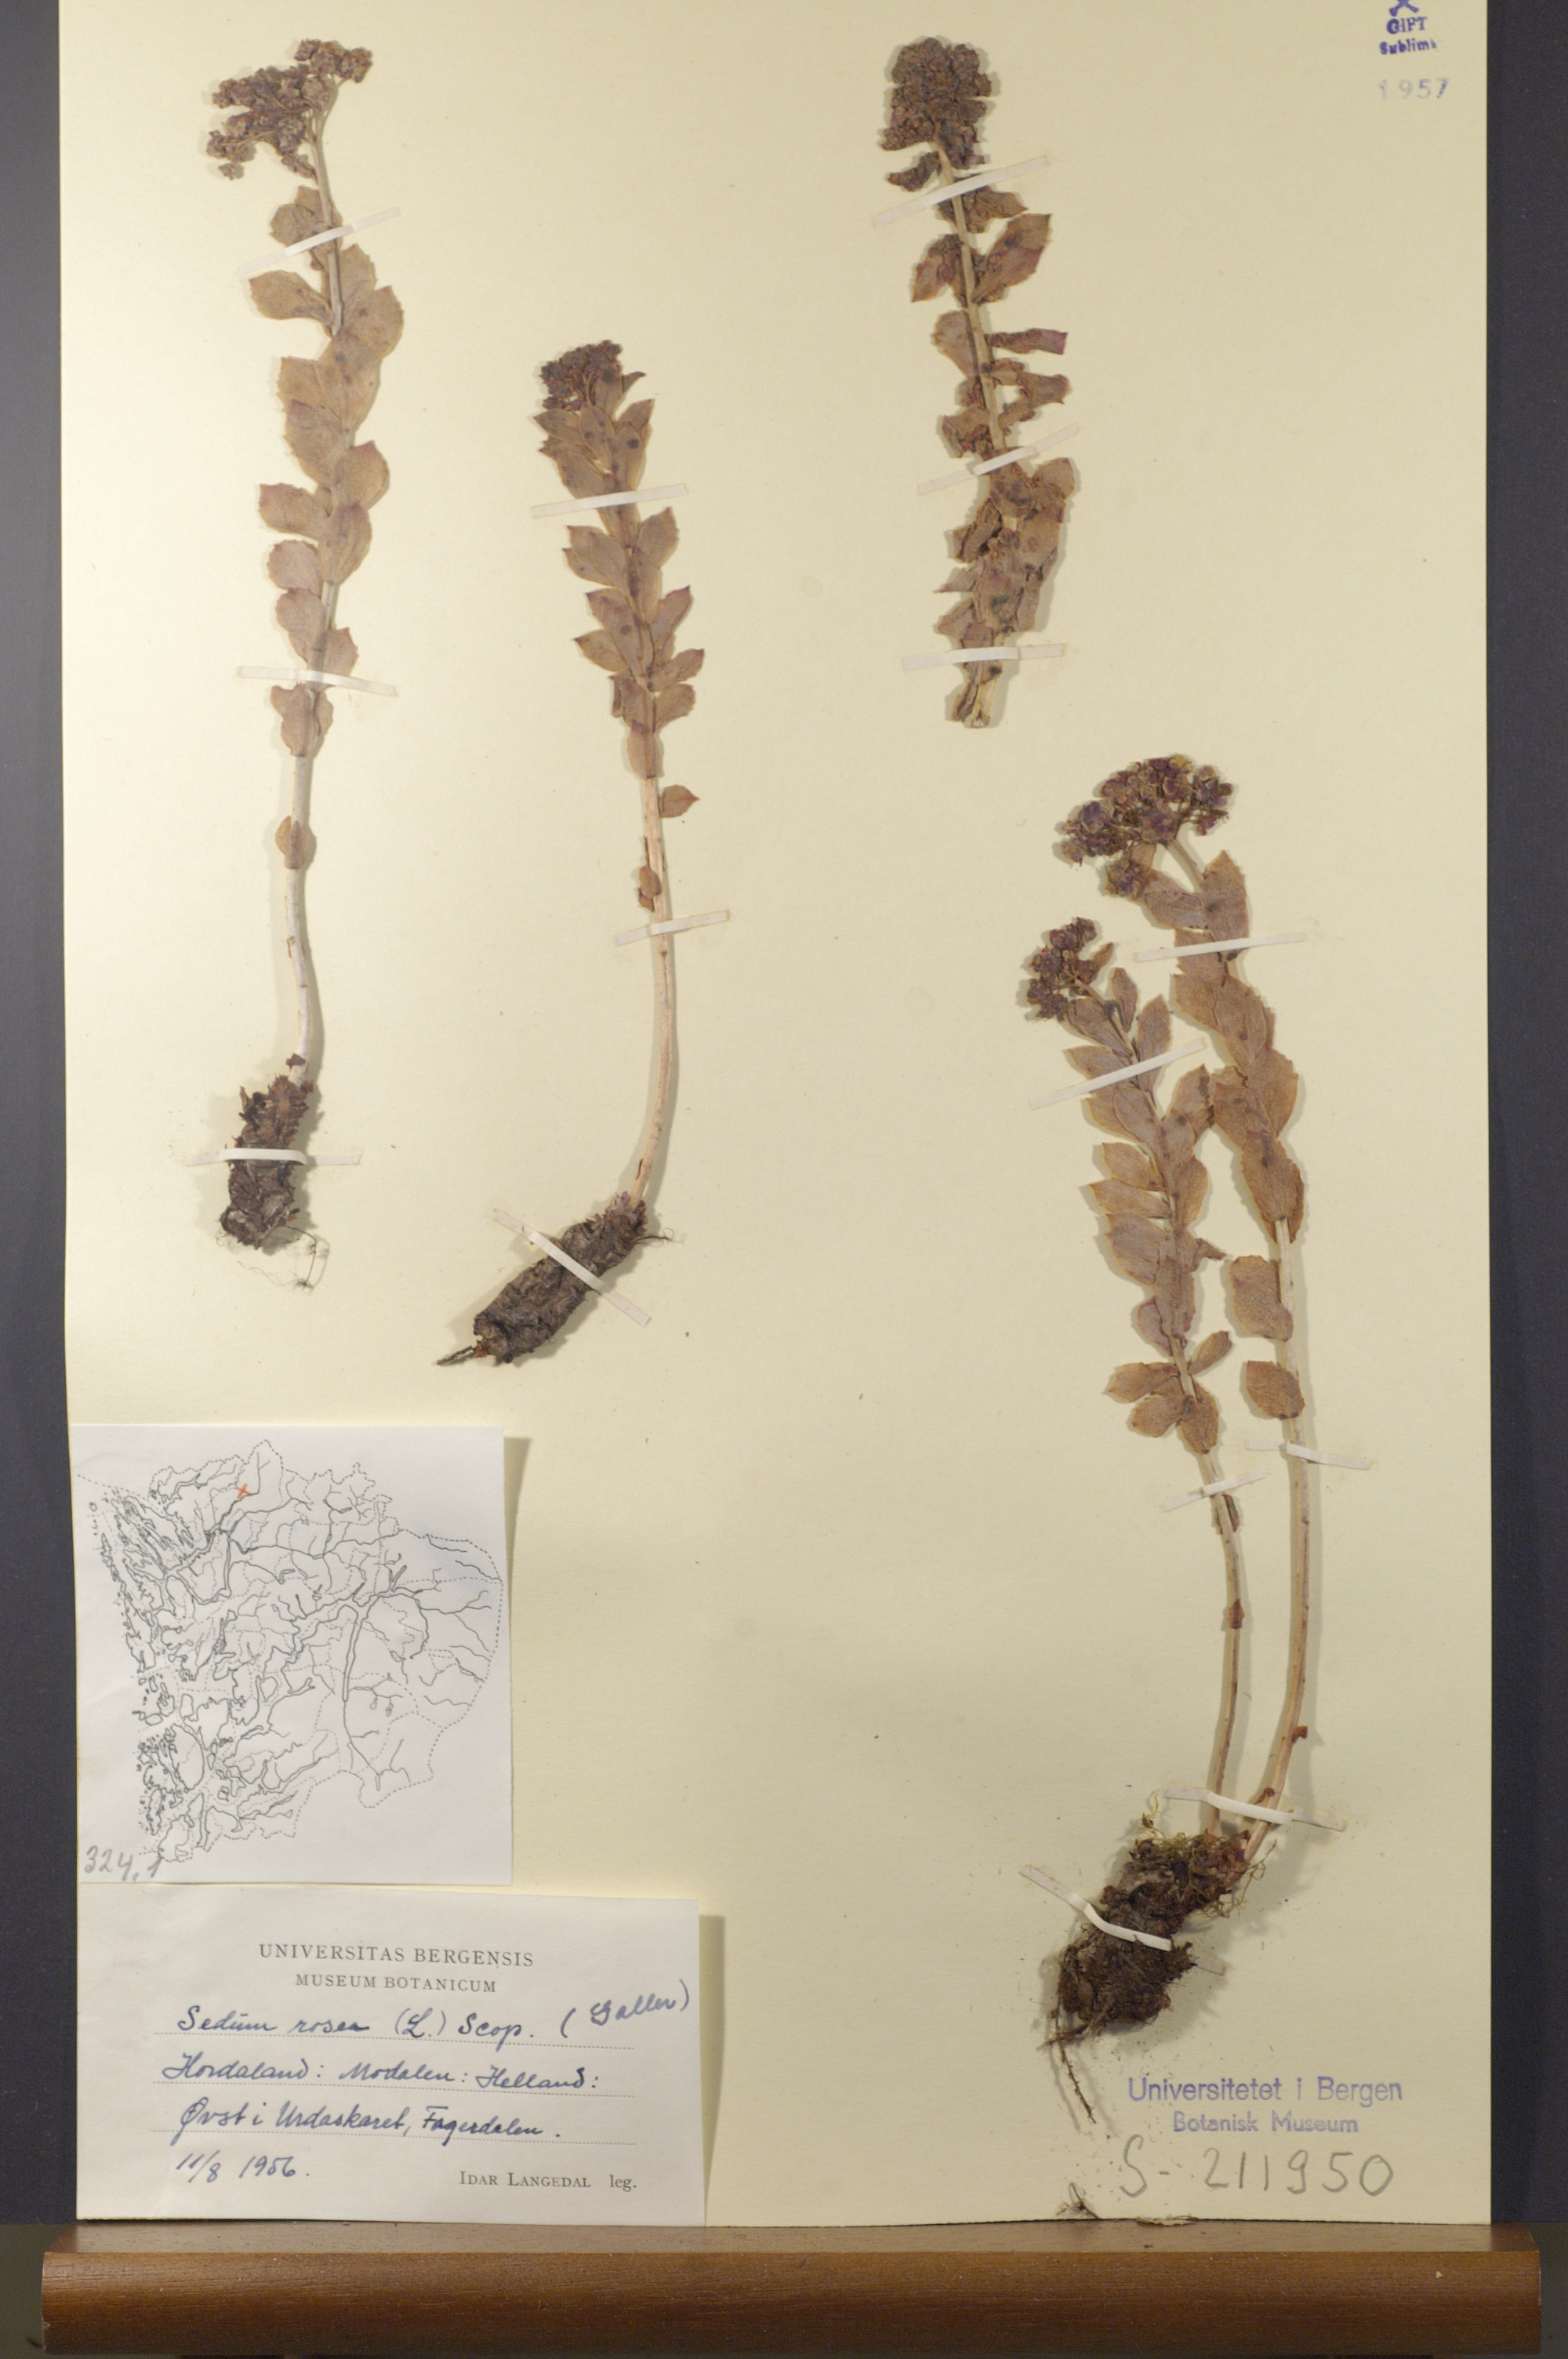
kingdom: Plantae
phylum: Tracheophyta
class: Magnoliopsida
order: Saxifragales
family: Crassulaceae
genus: Rhodiola
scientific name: Rhodiola rosea
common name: Roseroot
